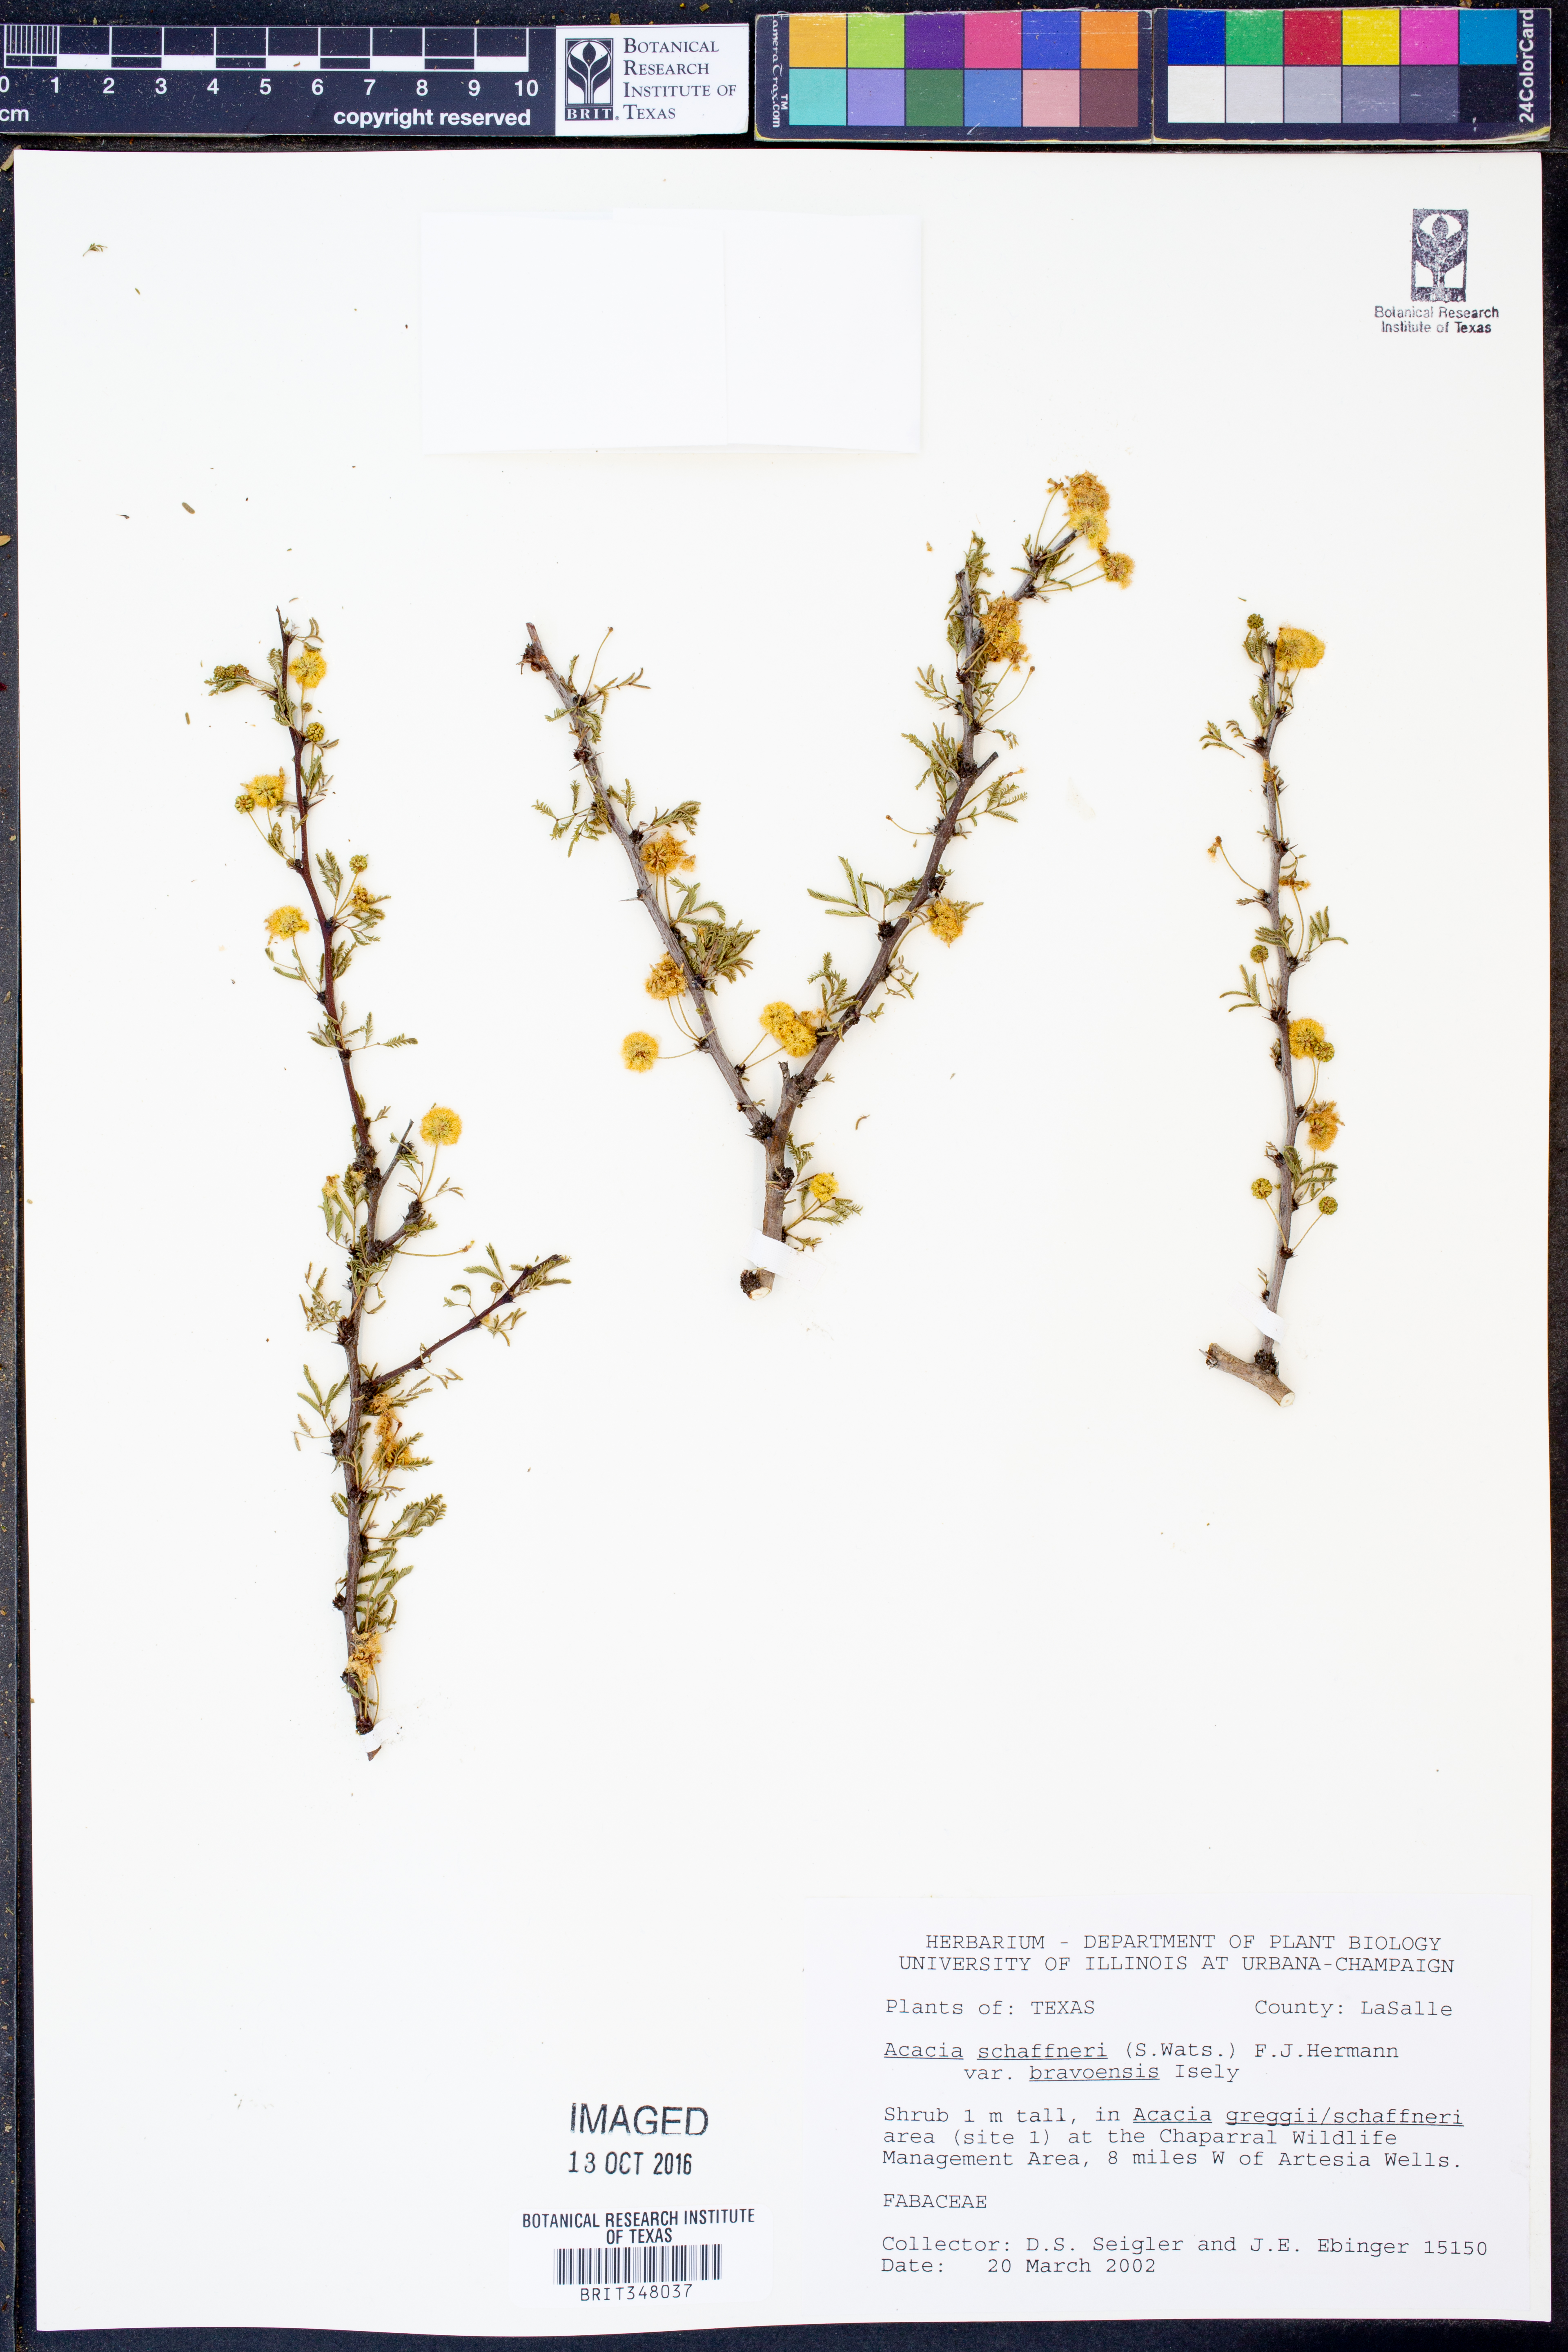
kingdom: Plantae
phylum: Tracheophyta
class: Magnoliopsida
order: Fabales
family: Fabaceae
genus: Vachellia
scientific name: Vachellia bravoensis
